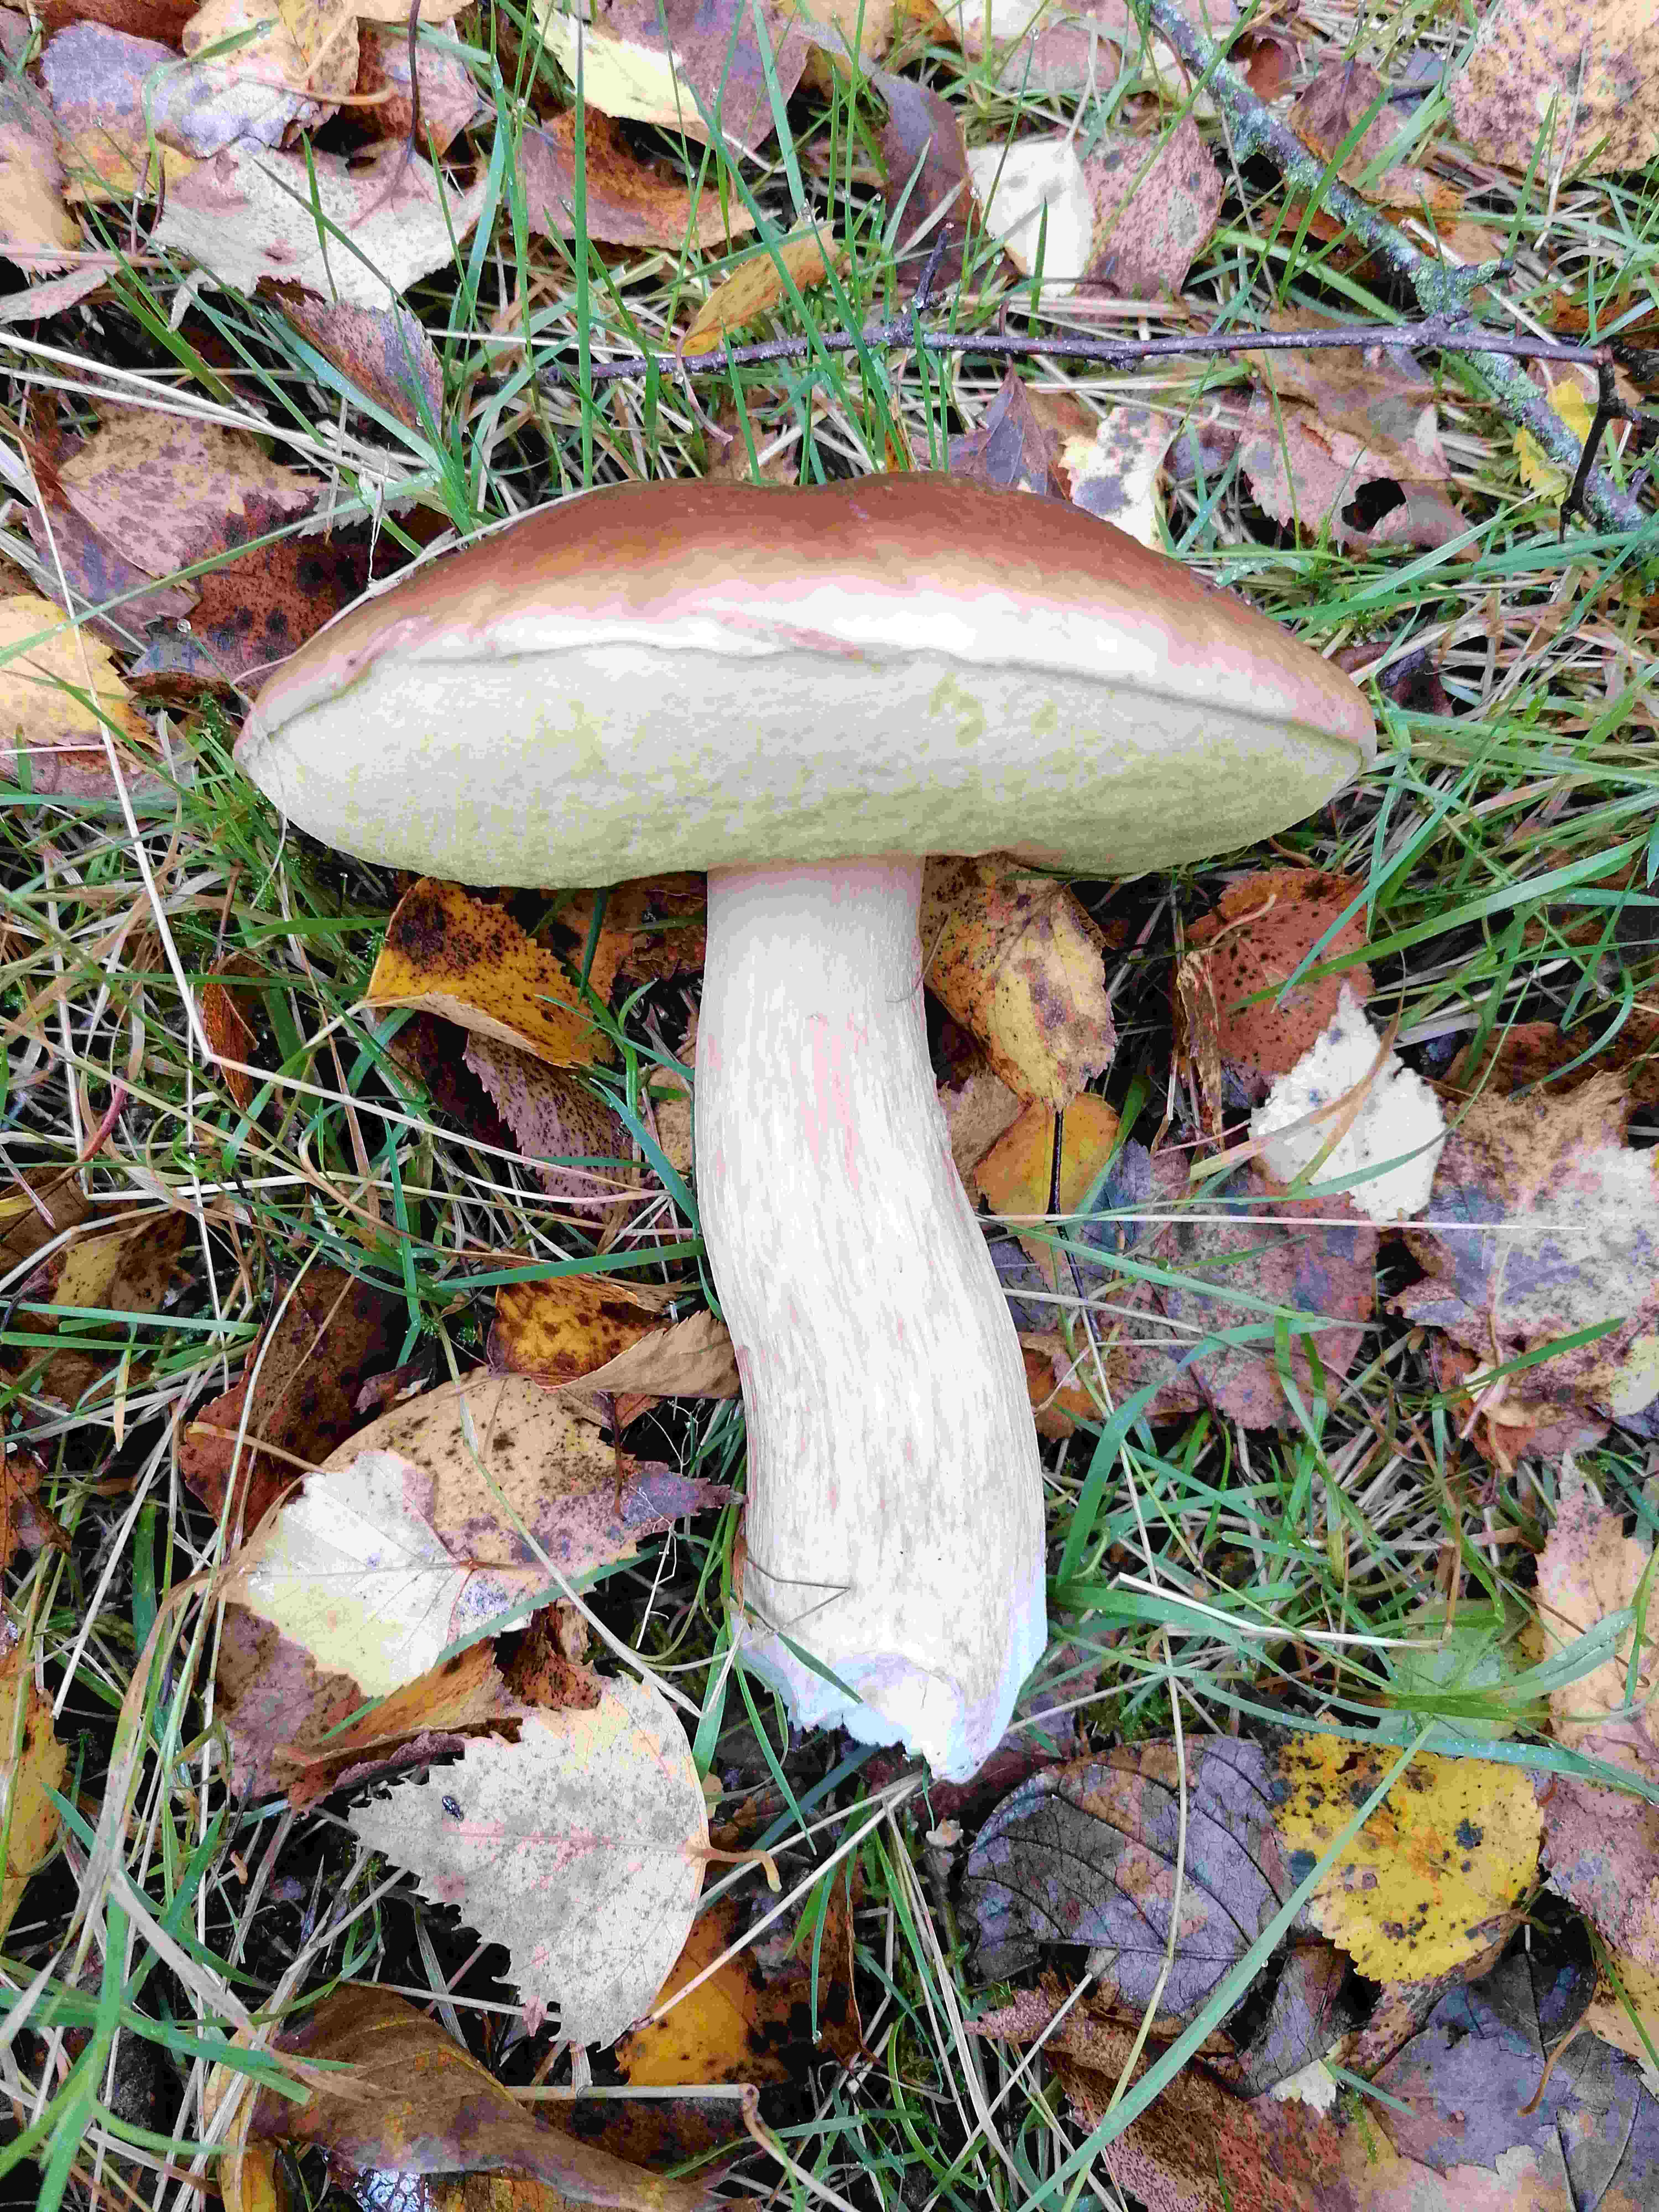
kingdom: Fungi
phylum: Basidiomycota
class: Agaricomycetes
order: Boletales
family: Boletaceae
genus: Boletus
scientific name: Boletus edulis
